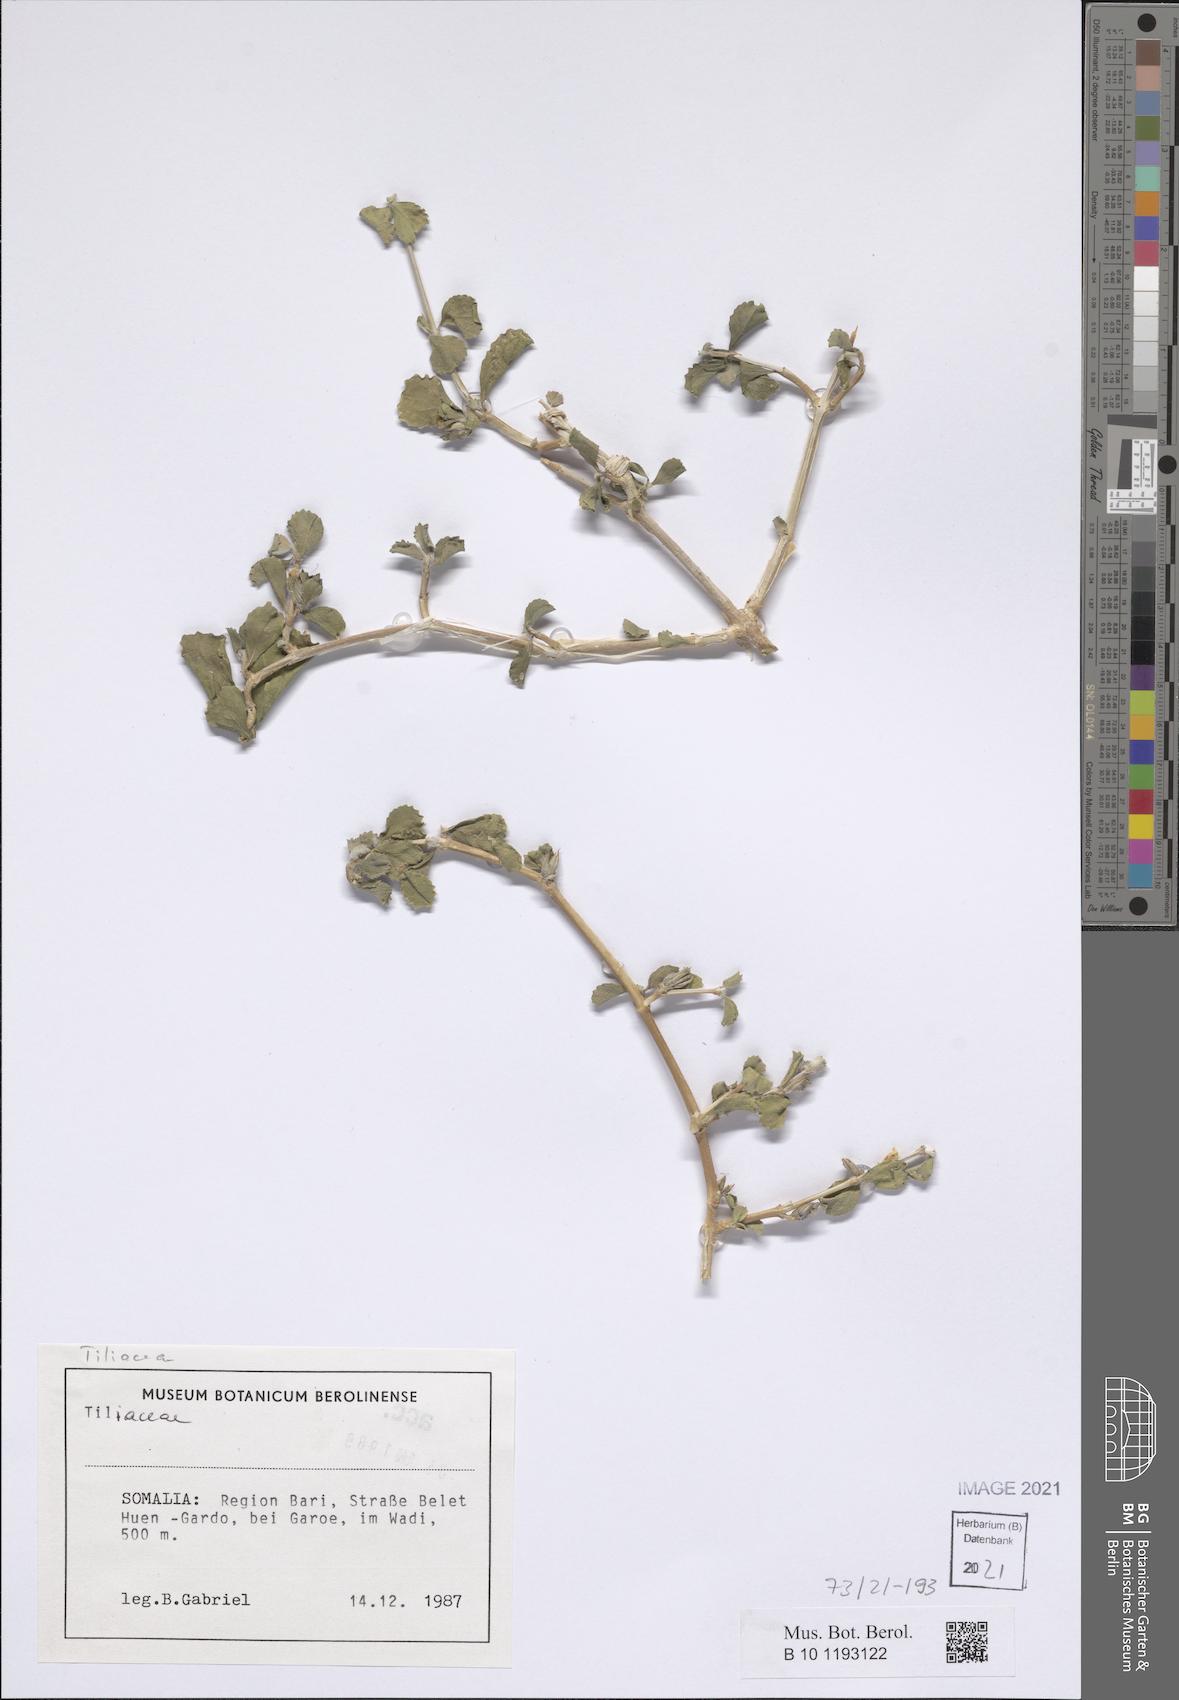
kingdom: Plantae
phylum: Tracheophyta
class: Magnoliopsida
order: Lamiales
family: Acanthaceae
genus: Duosperma
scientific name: Duosperma longicalyx
